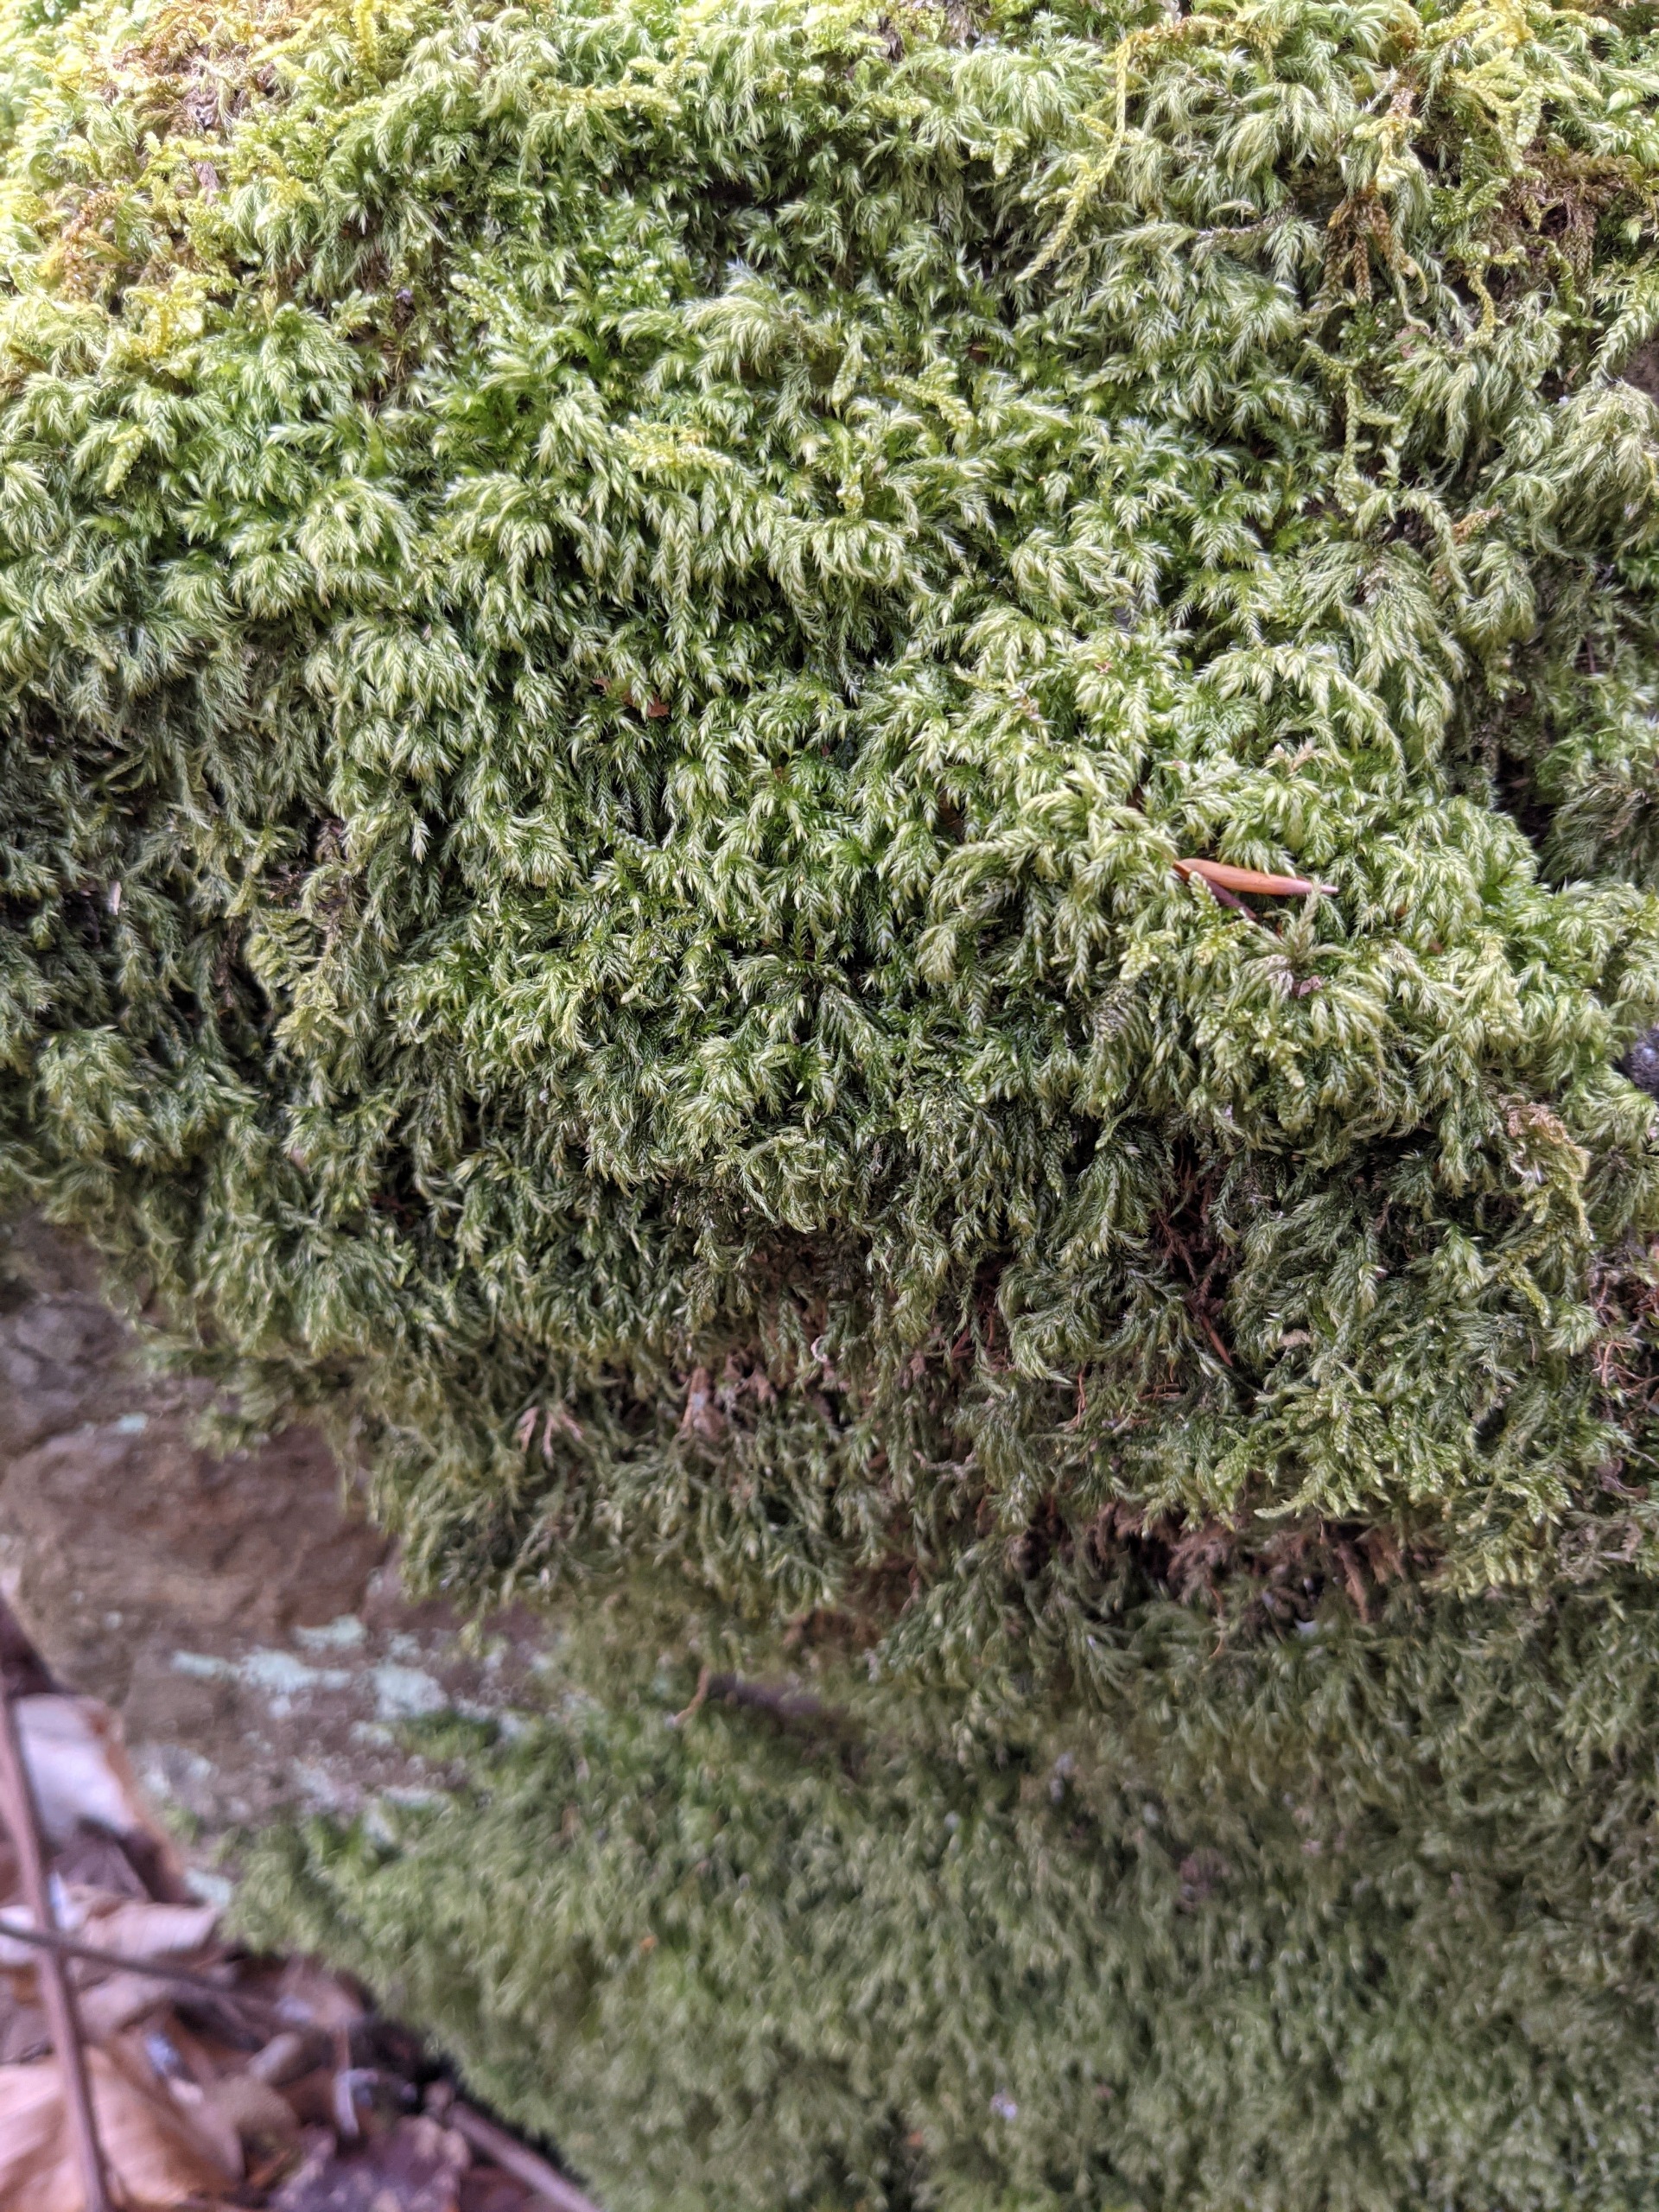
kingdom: Plantae
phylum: Bryophyta
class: Bryopsida
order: Hypnales
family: Lembophyllaceae
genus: Pseudisothecium
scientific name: Pseudisothecium myosuroides
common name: Slank stammemos
